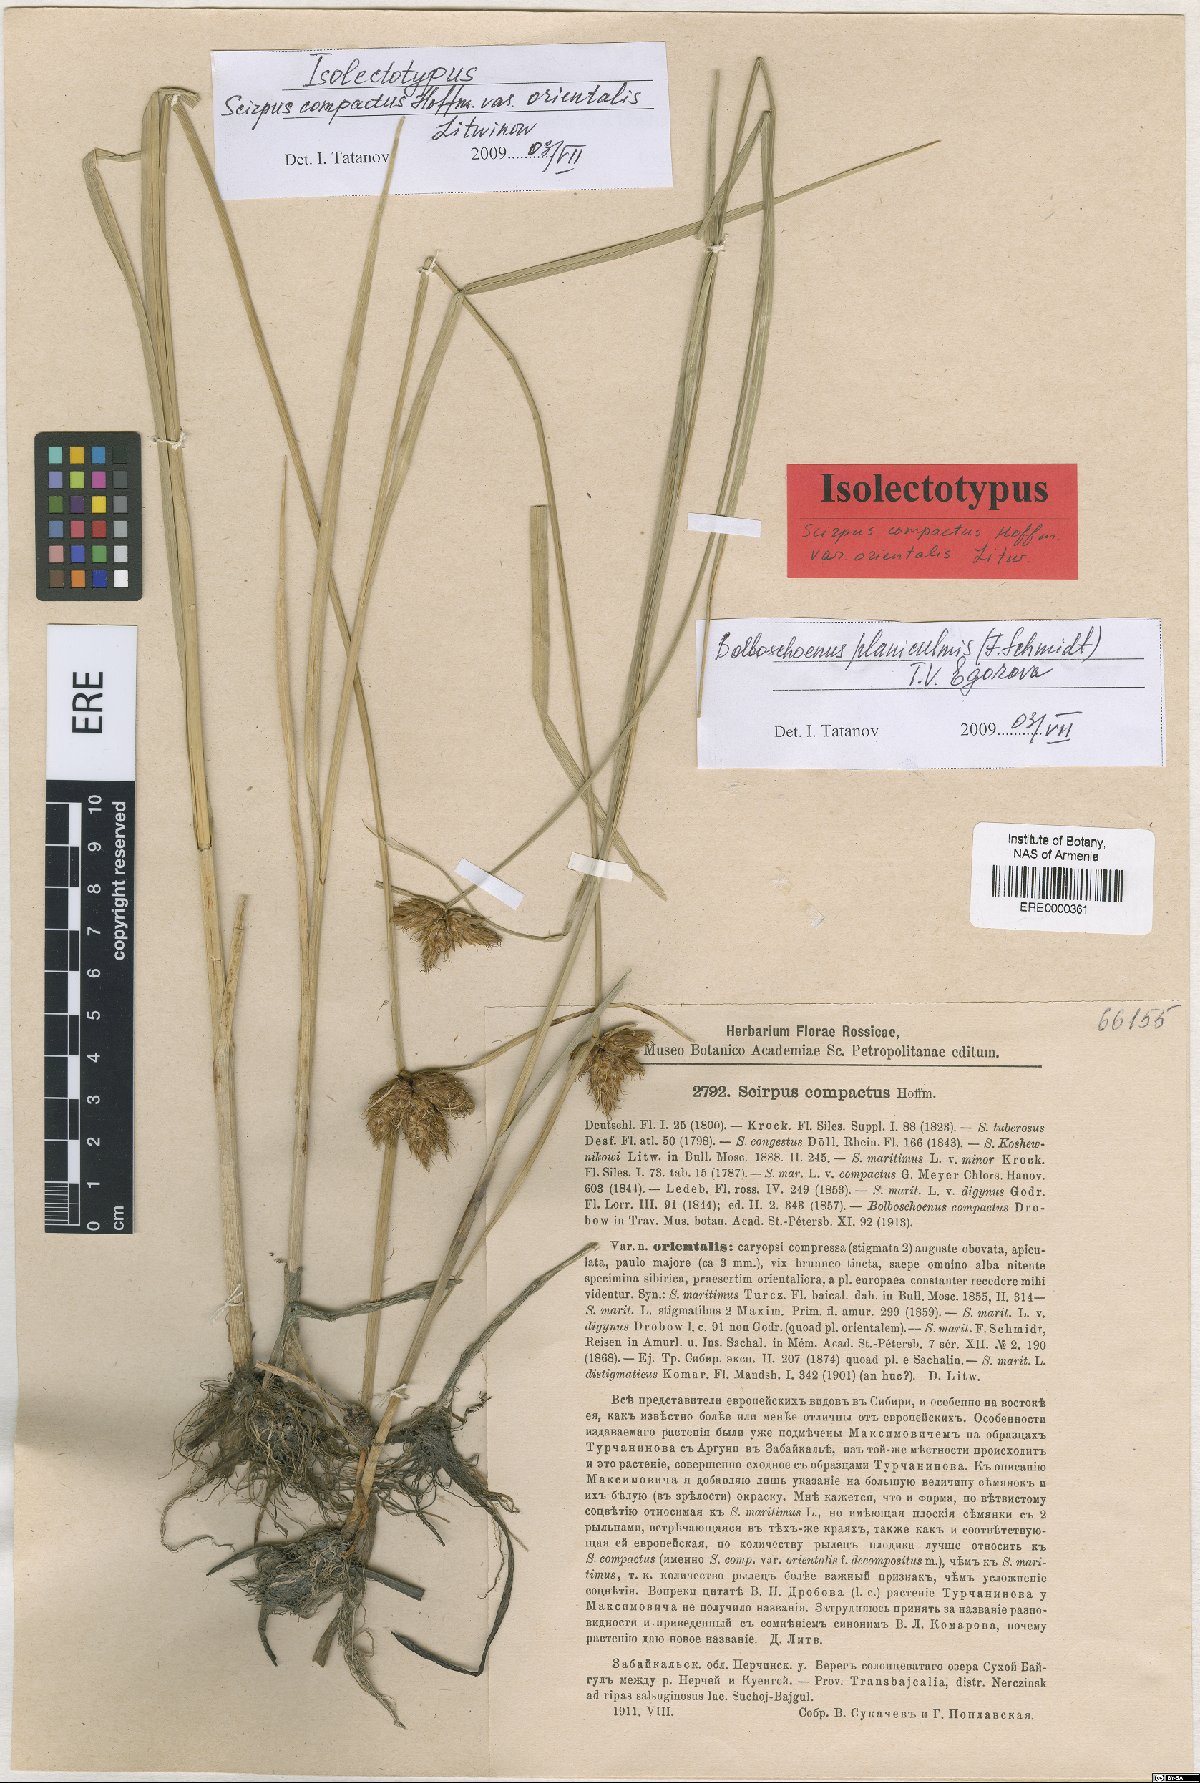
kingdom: Plantae
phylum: Tracheophyta
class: Liliopsida
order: Poales
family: Cyperaceae
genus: Bolboschoenus
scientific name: Bolboschoenus schmidii
